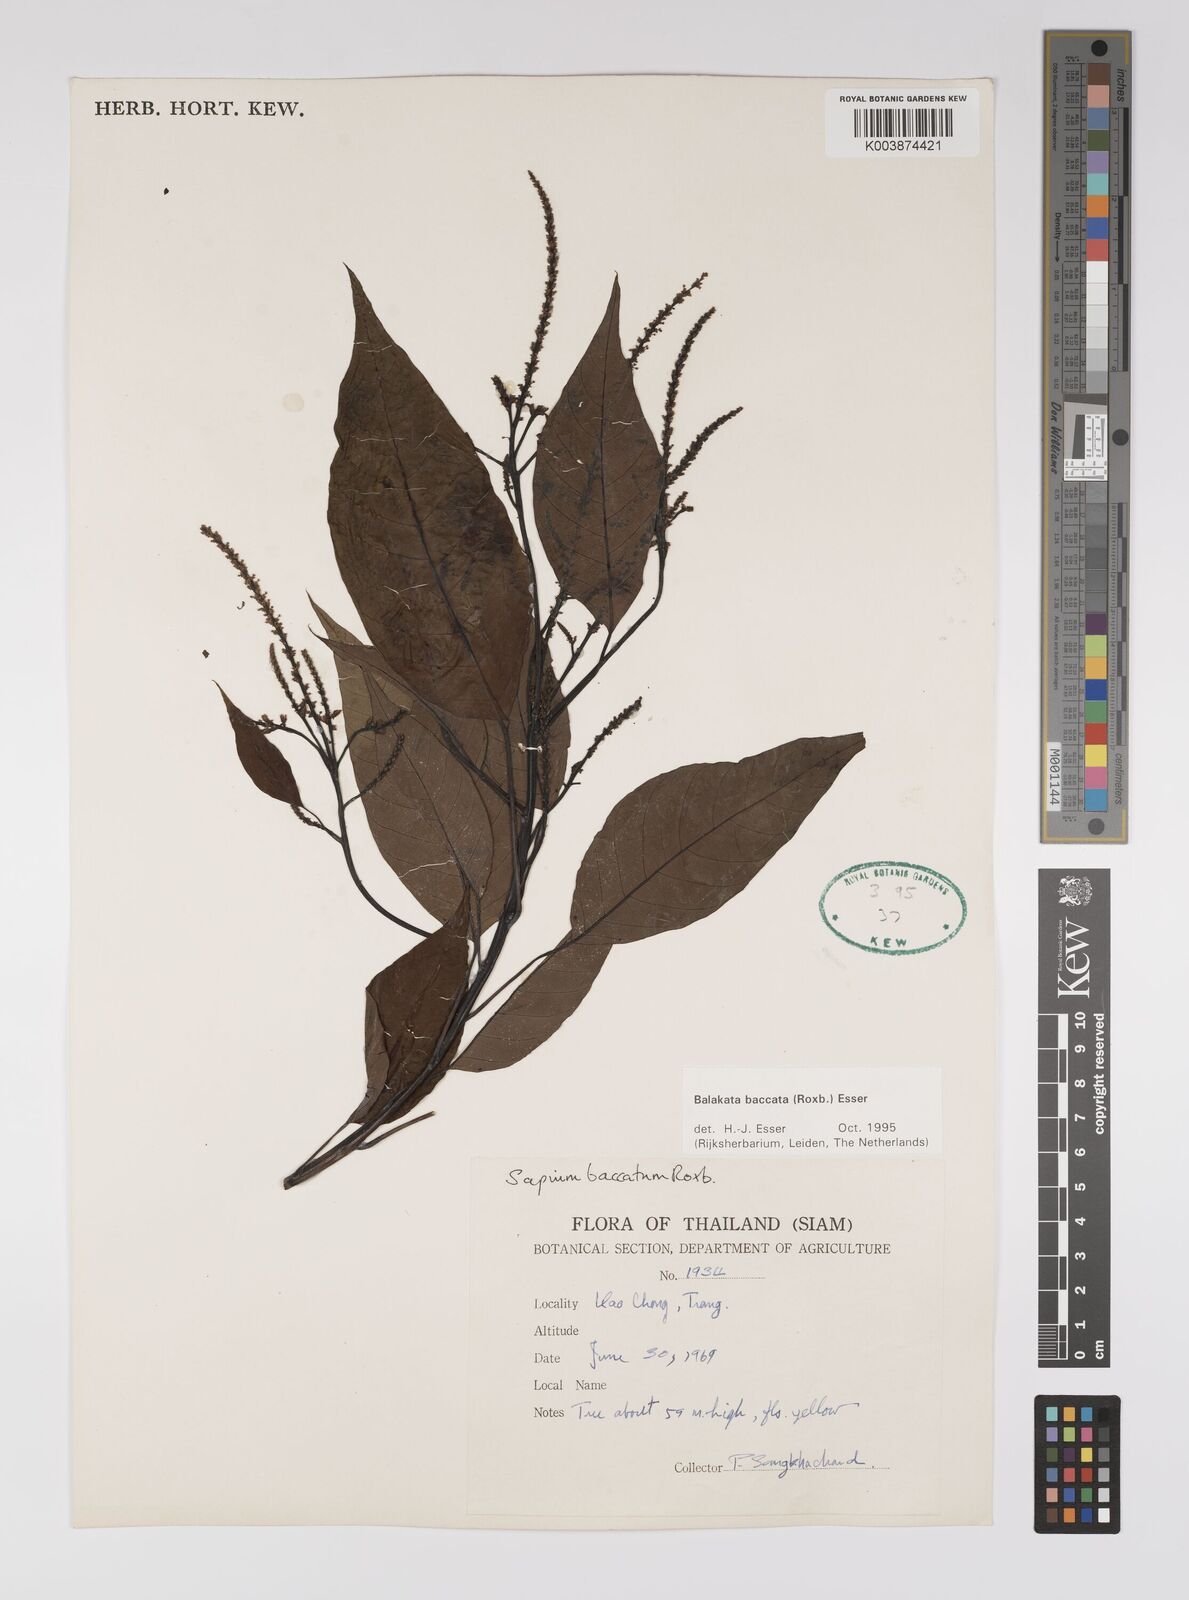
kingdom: Plantae
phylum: Tracheophyta
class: Magnoliopsida
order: Malpighiales
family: Euphorbiaceae
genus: Balakata
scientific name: Balakata baccata
